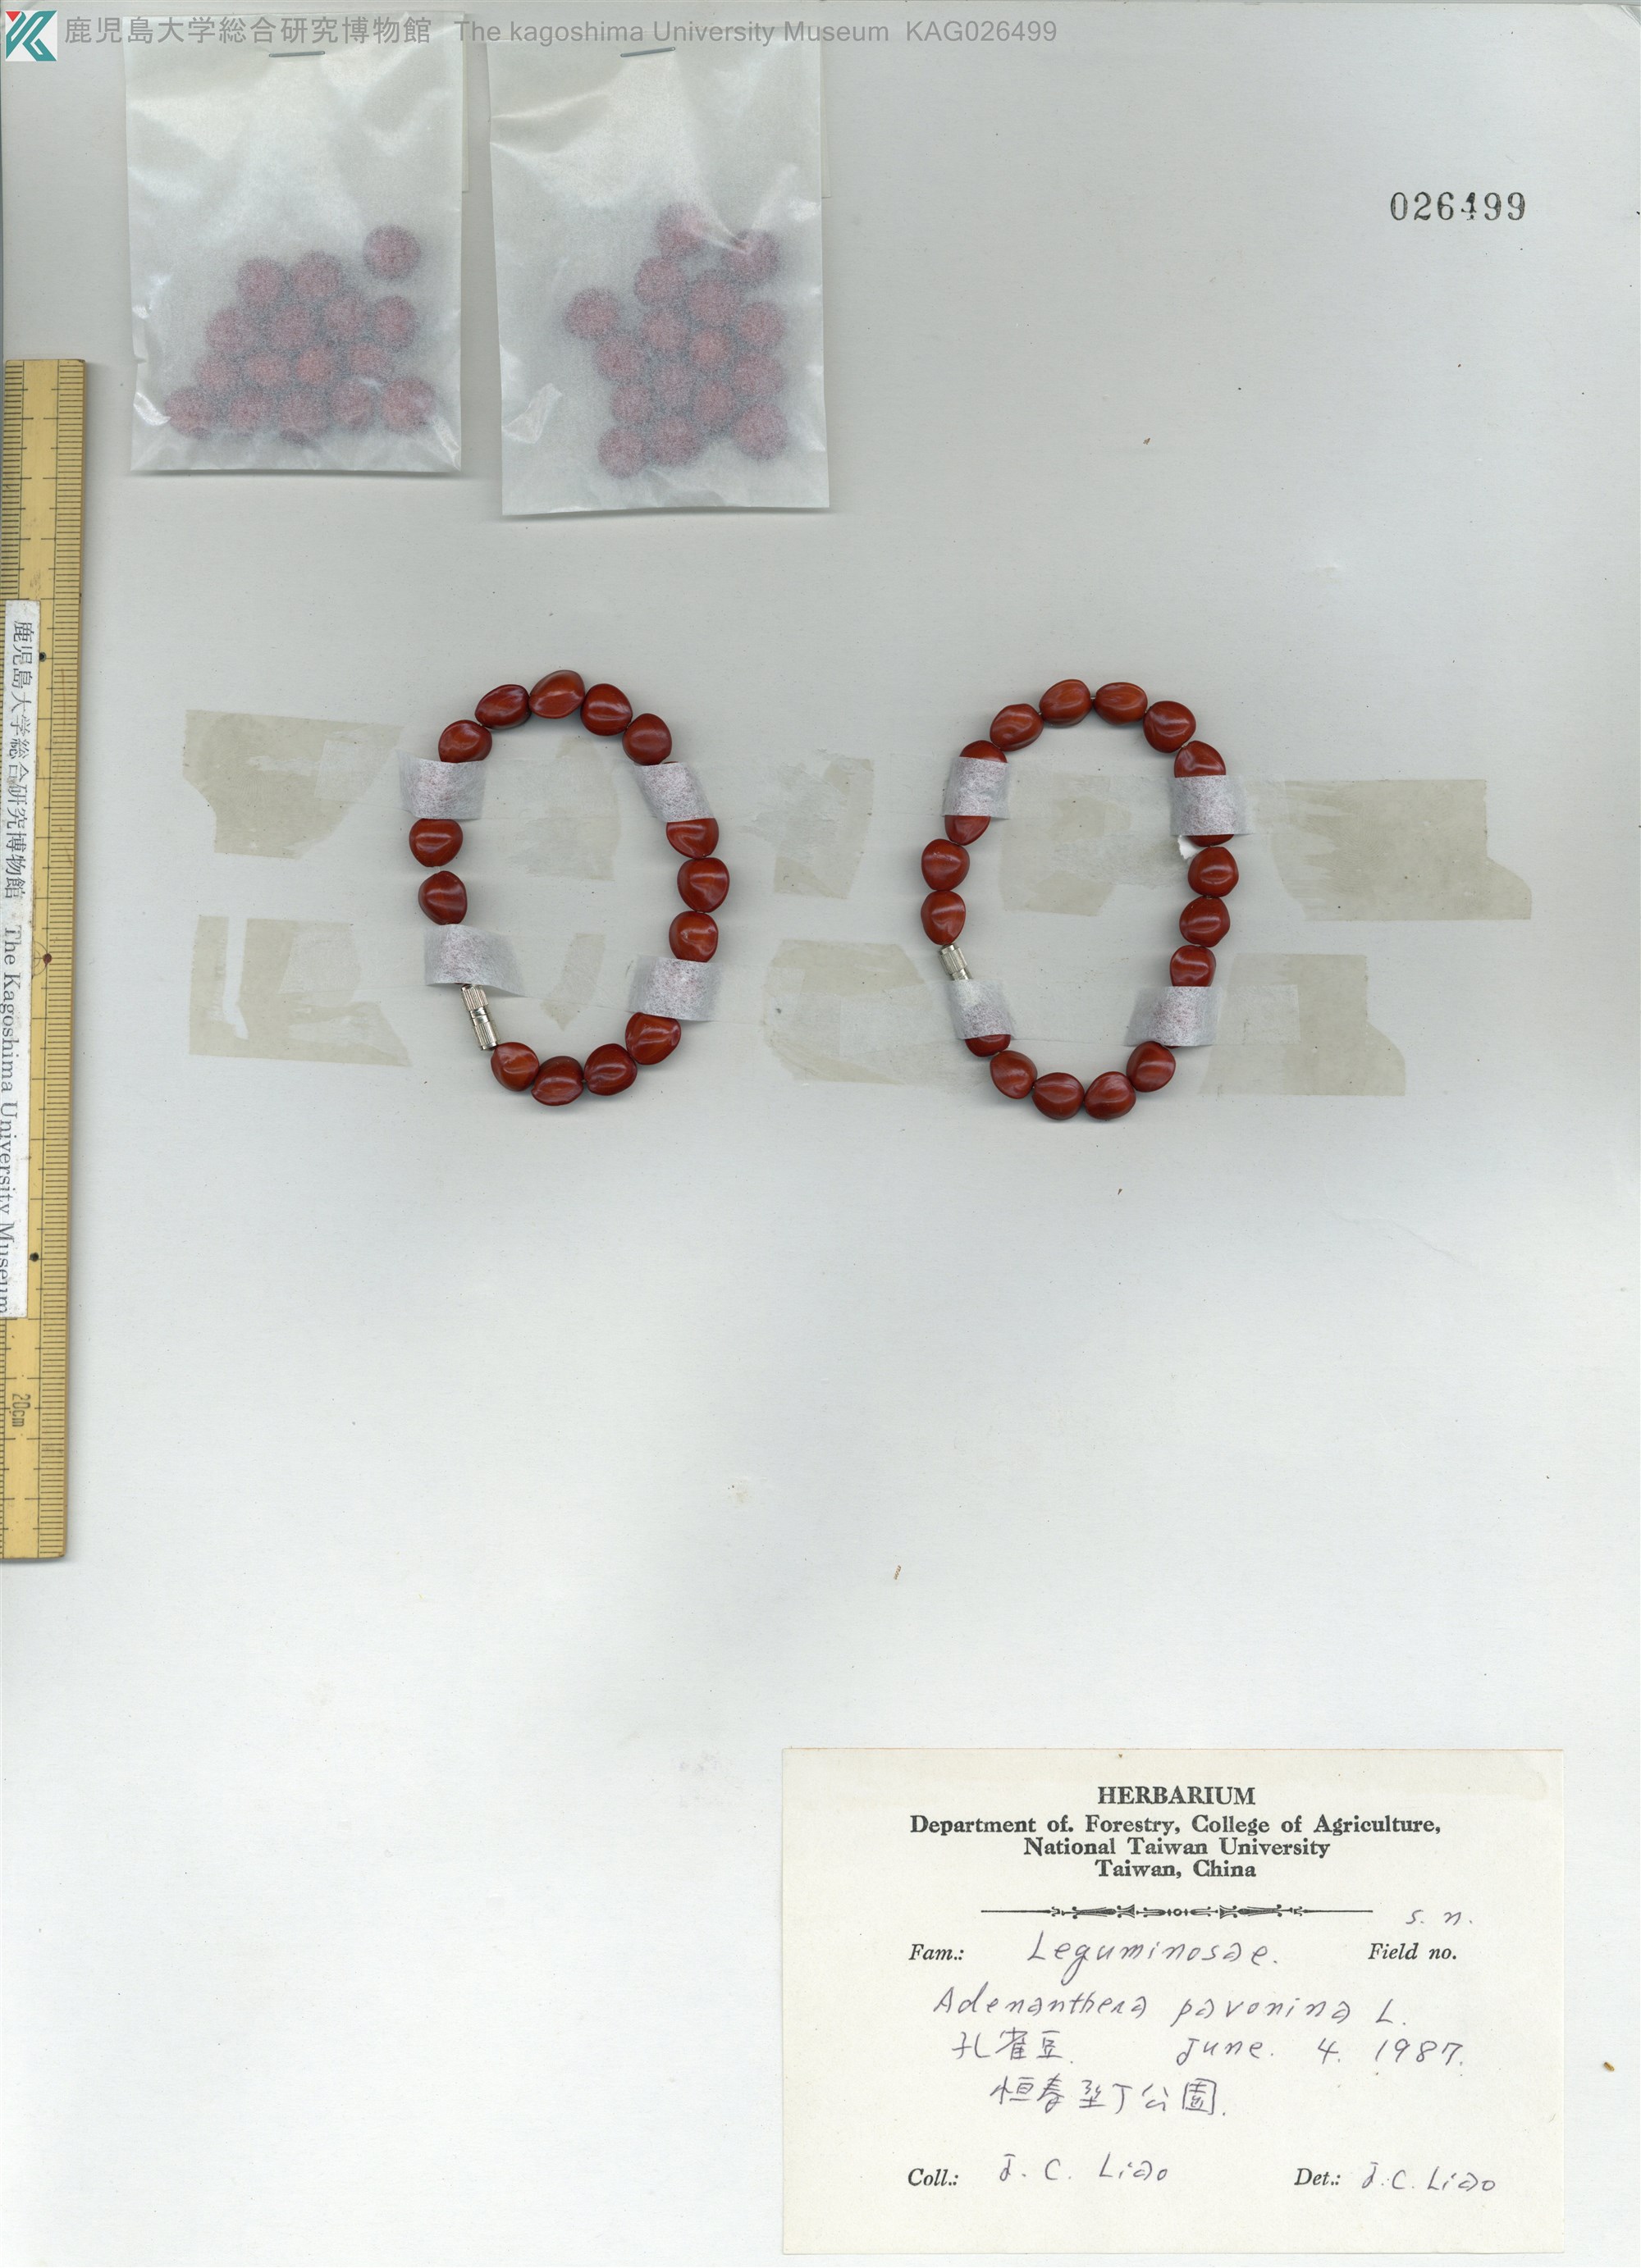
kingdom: Plantae
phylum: Tracheophyta
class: Magnoliopsida
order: Fabales
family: Fabaceae
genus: Adenanthera
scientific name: Adenanthera pavonina
